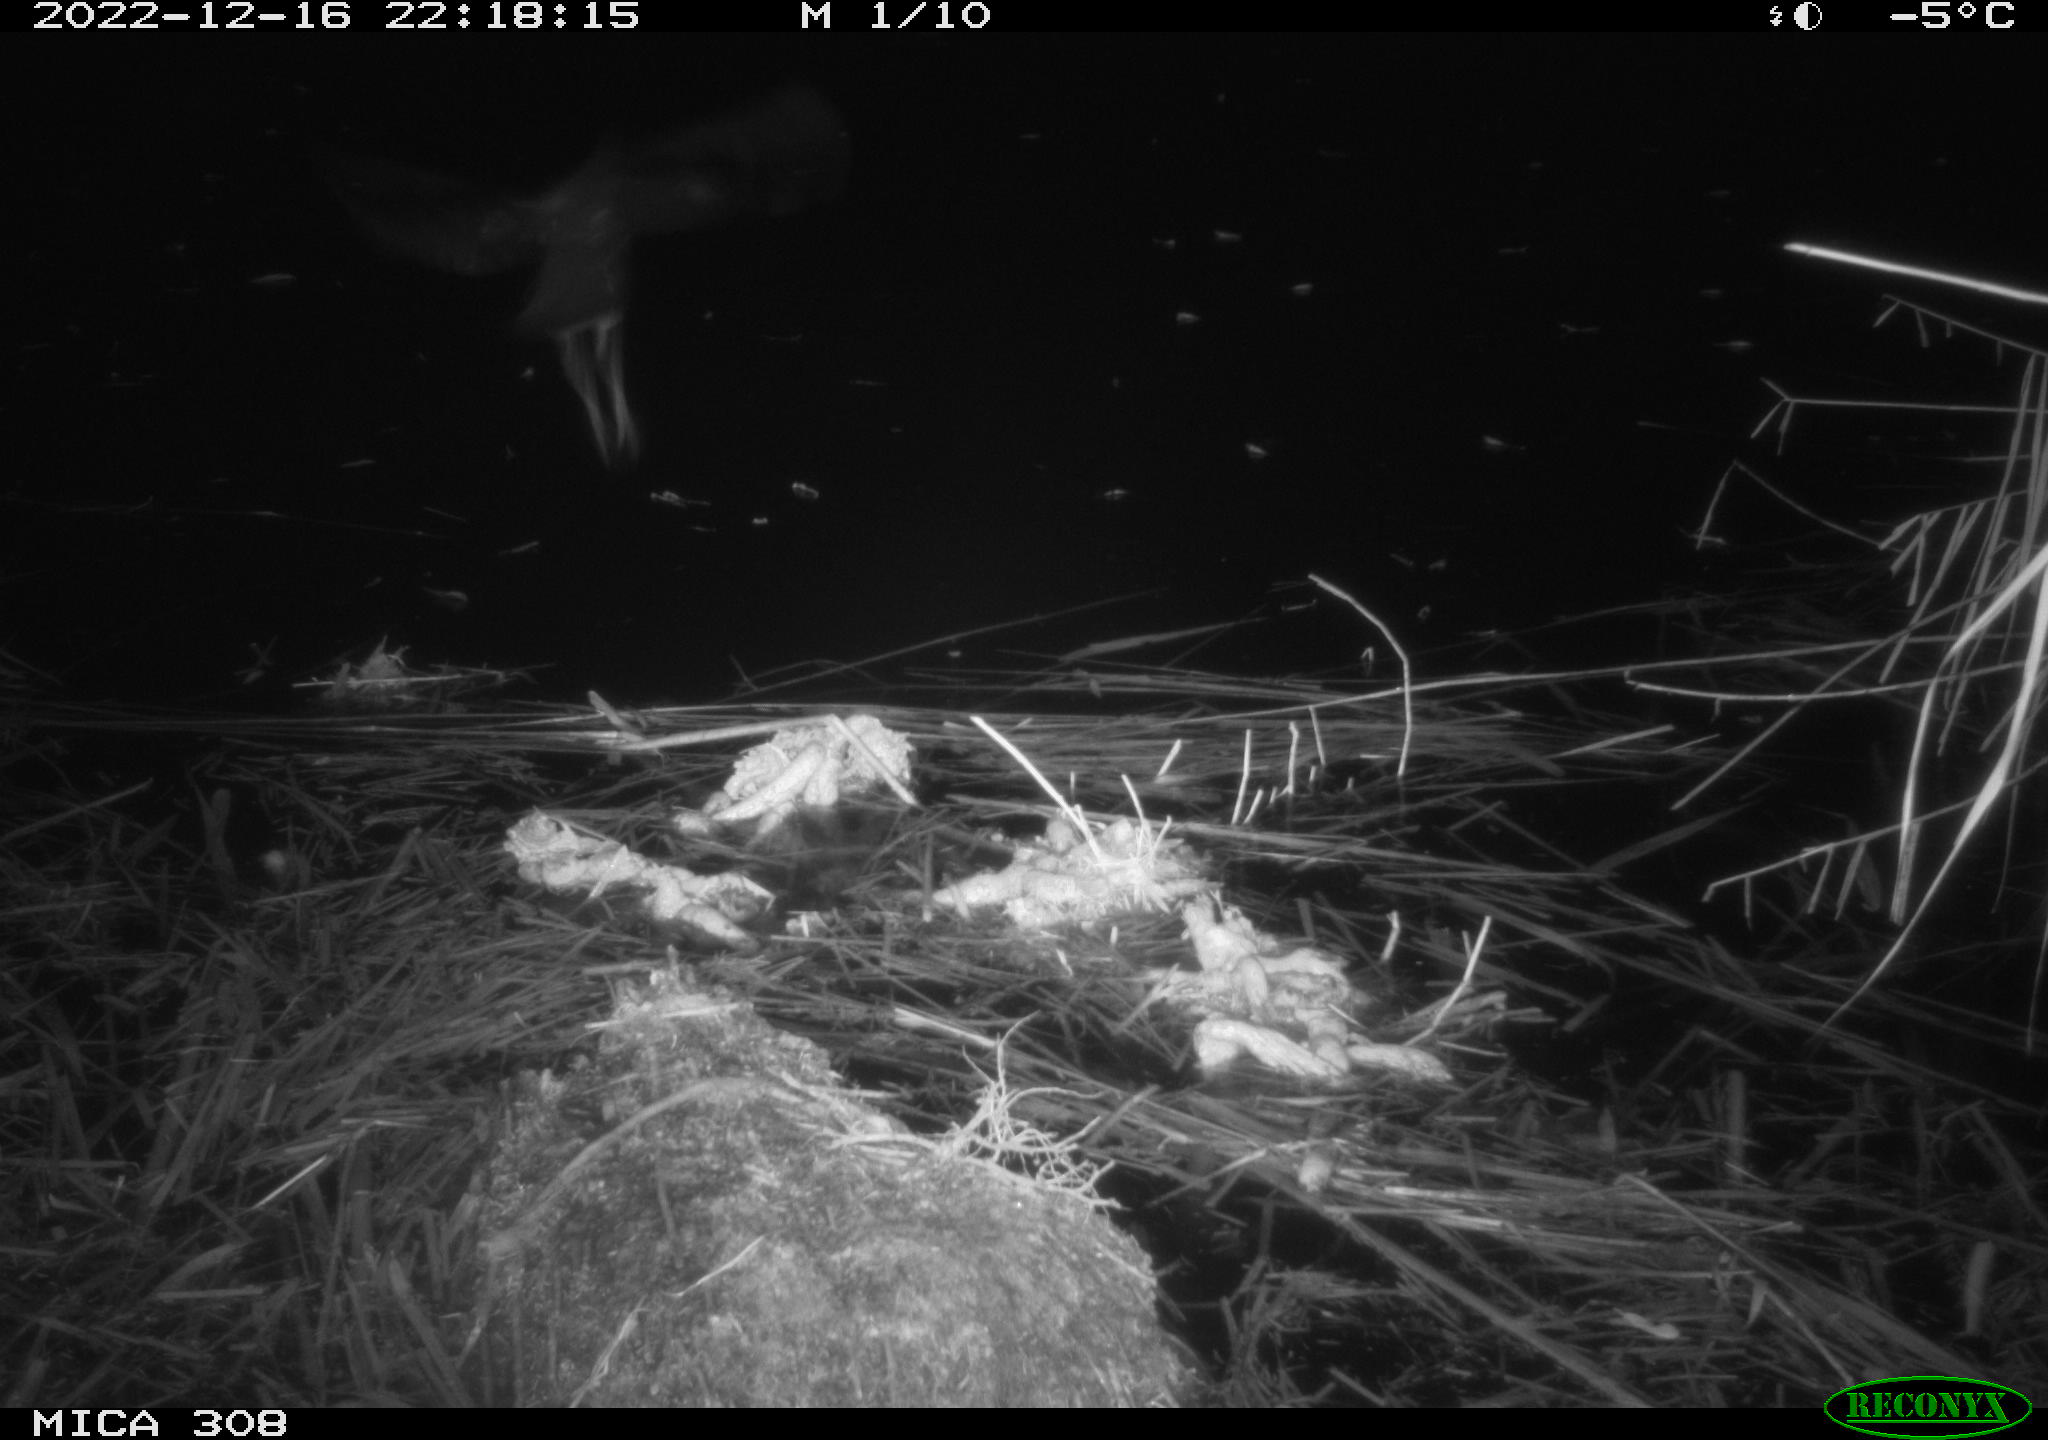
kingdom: Animalia
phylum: Chordata
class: Mammalia
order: Rodentia
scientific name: Rodentia
